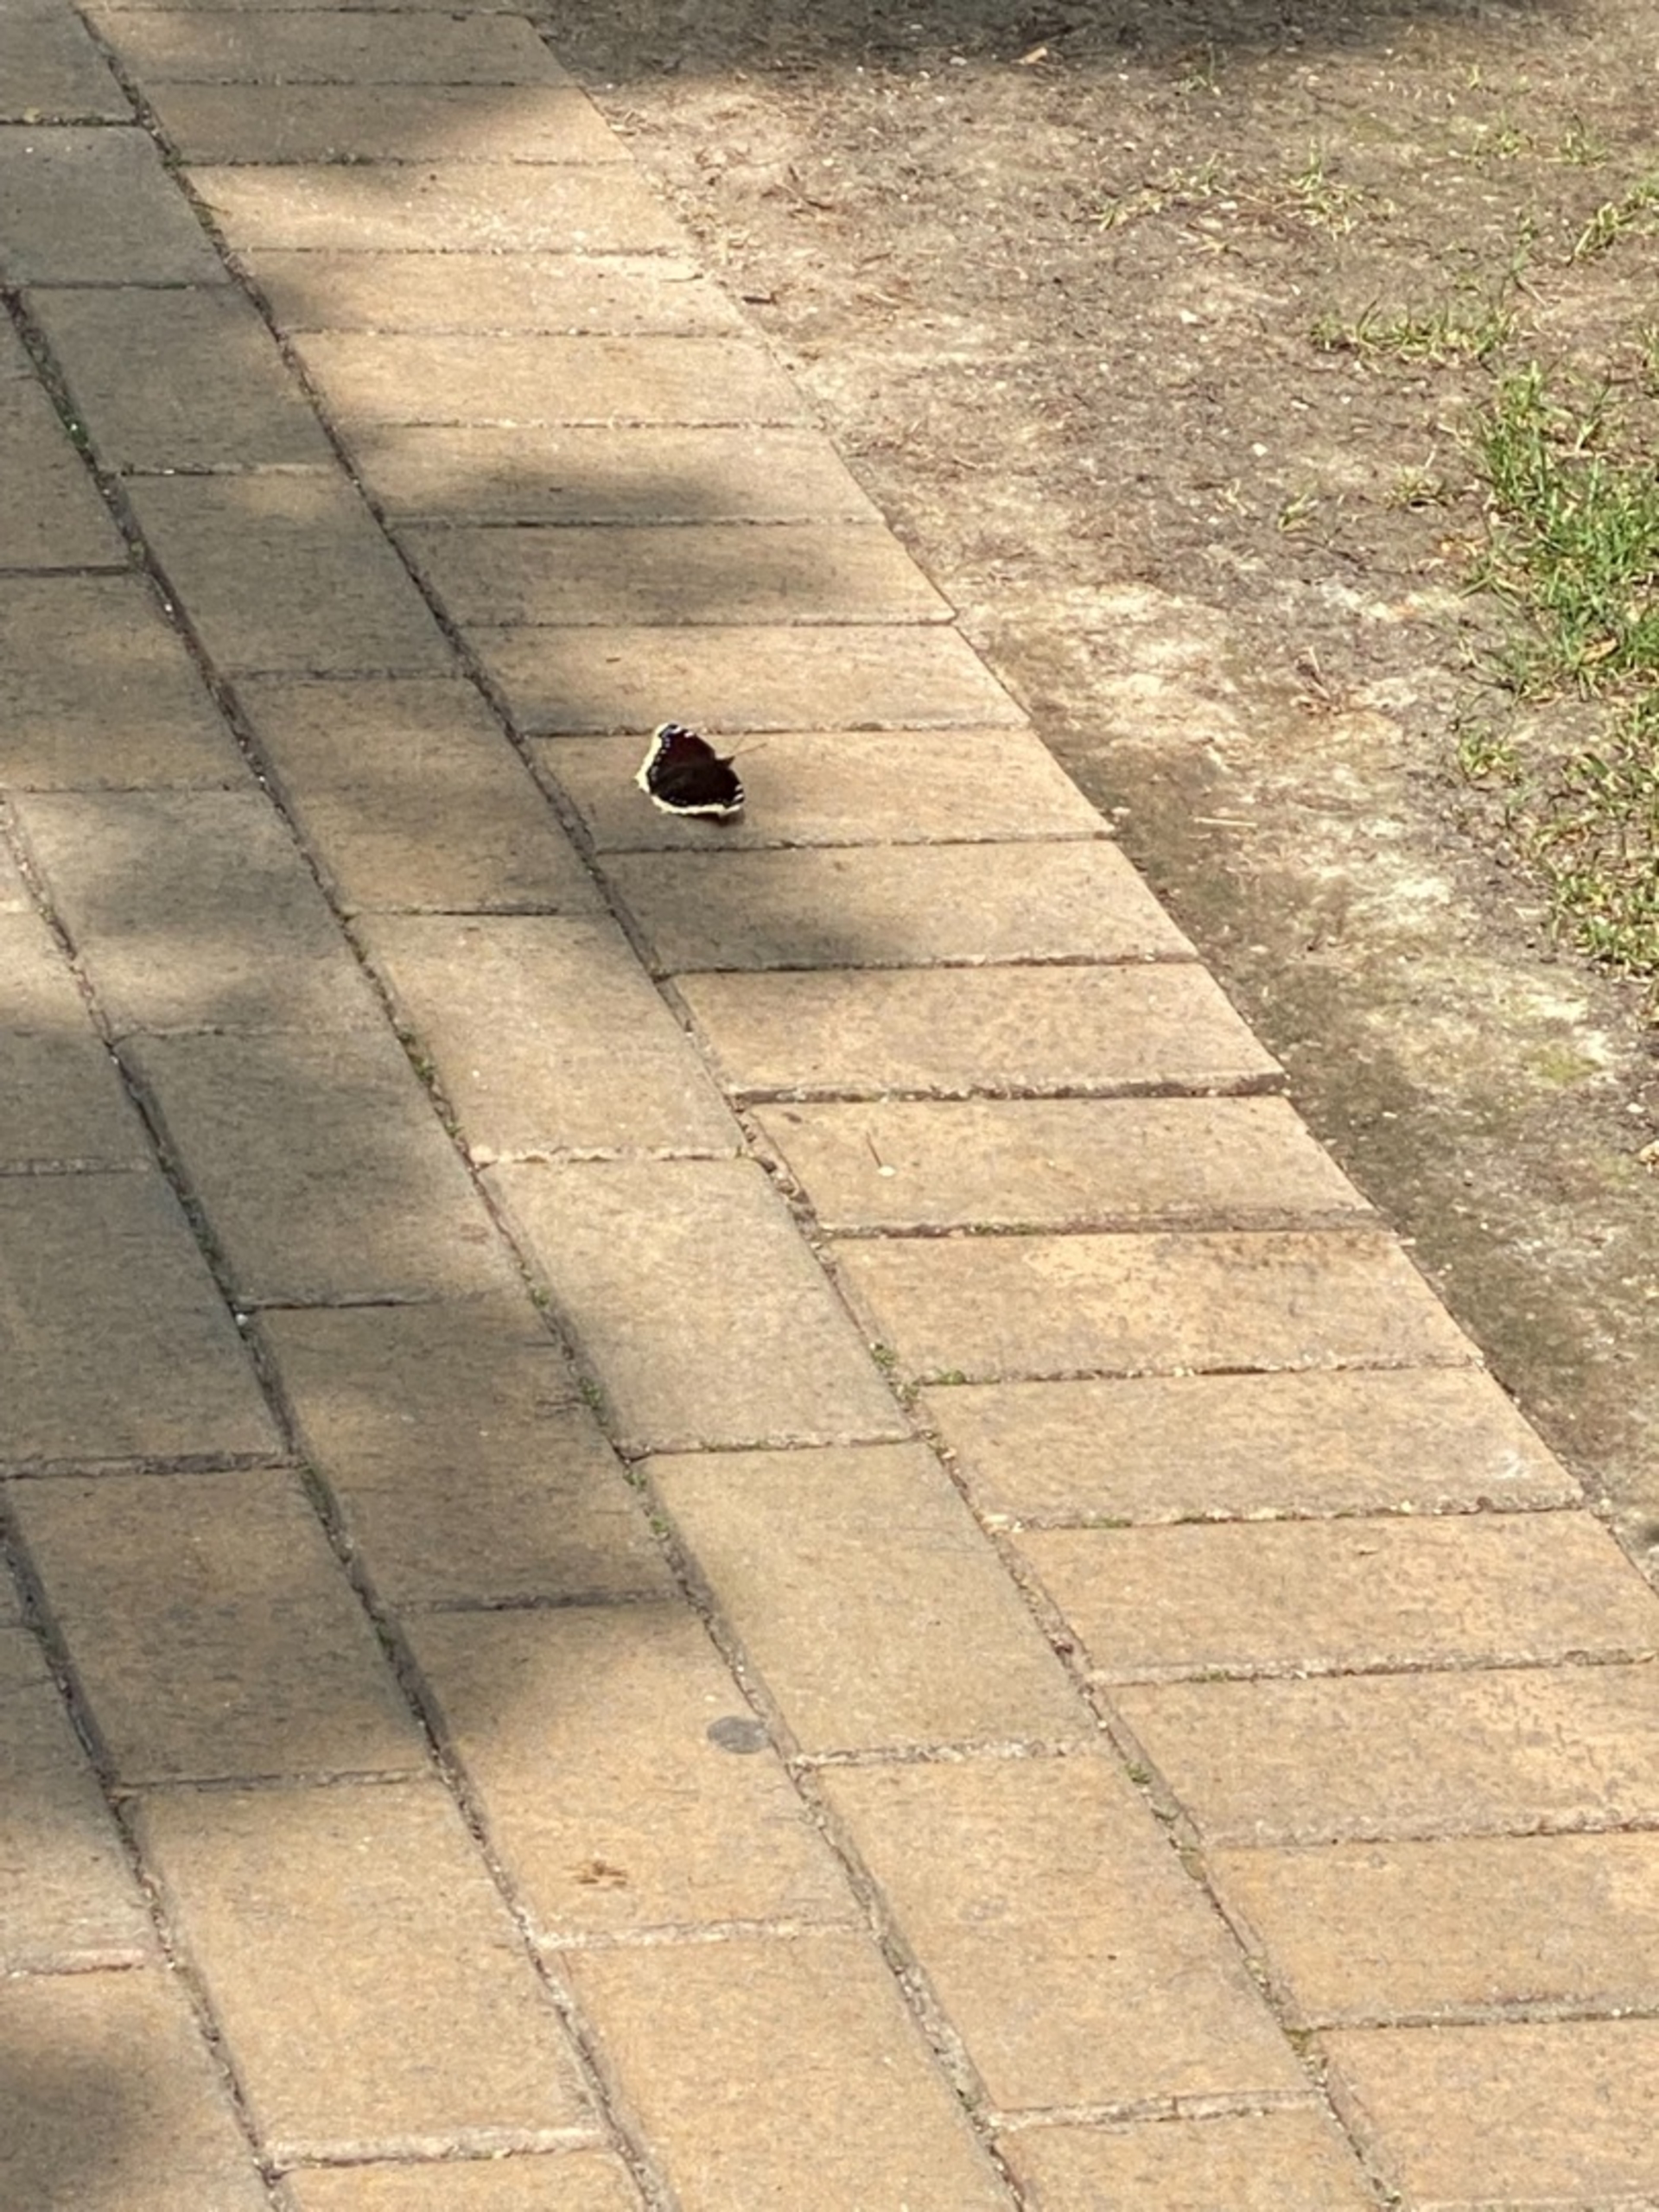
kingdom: Animalia
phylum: Arthropoda
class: Insecta
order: Lepidoptera
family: Nymphalidae
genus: Nymphalis
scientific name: Nymphalis antiopa
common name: Sørgekåbe
